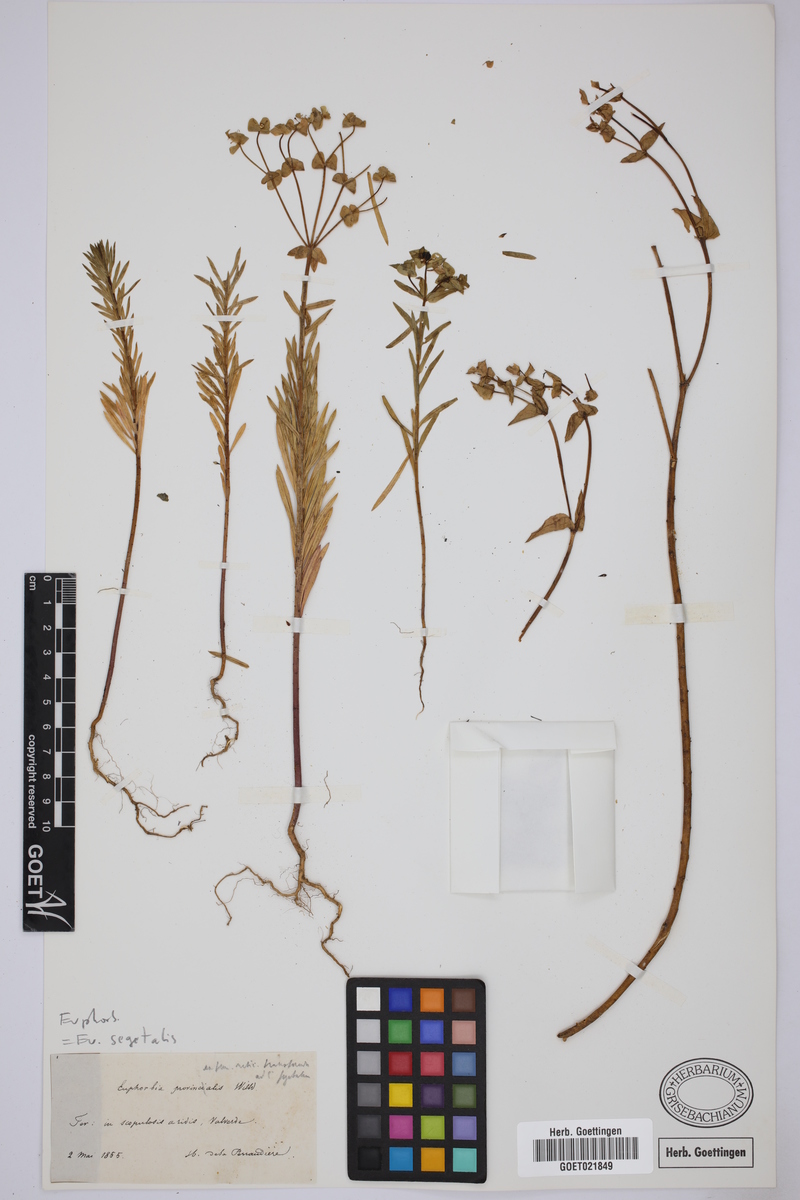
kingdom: Plantae
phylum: Tracheophyta
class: Magnoliopsida
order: Malpighiales
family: Euphorbiaceae
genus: Euphorbia
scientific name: Euphorbia segetalis
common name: Corn spurge
